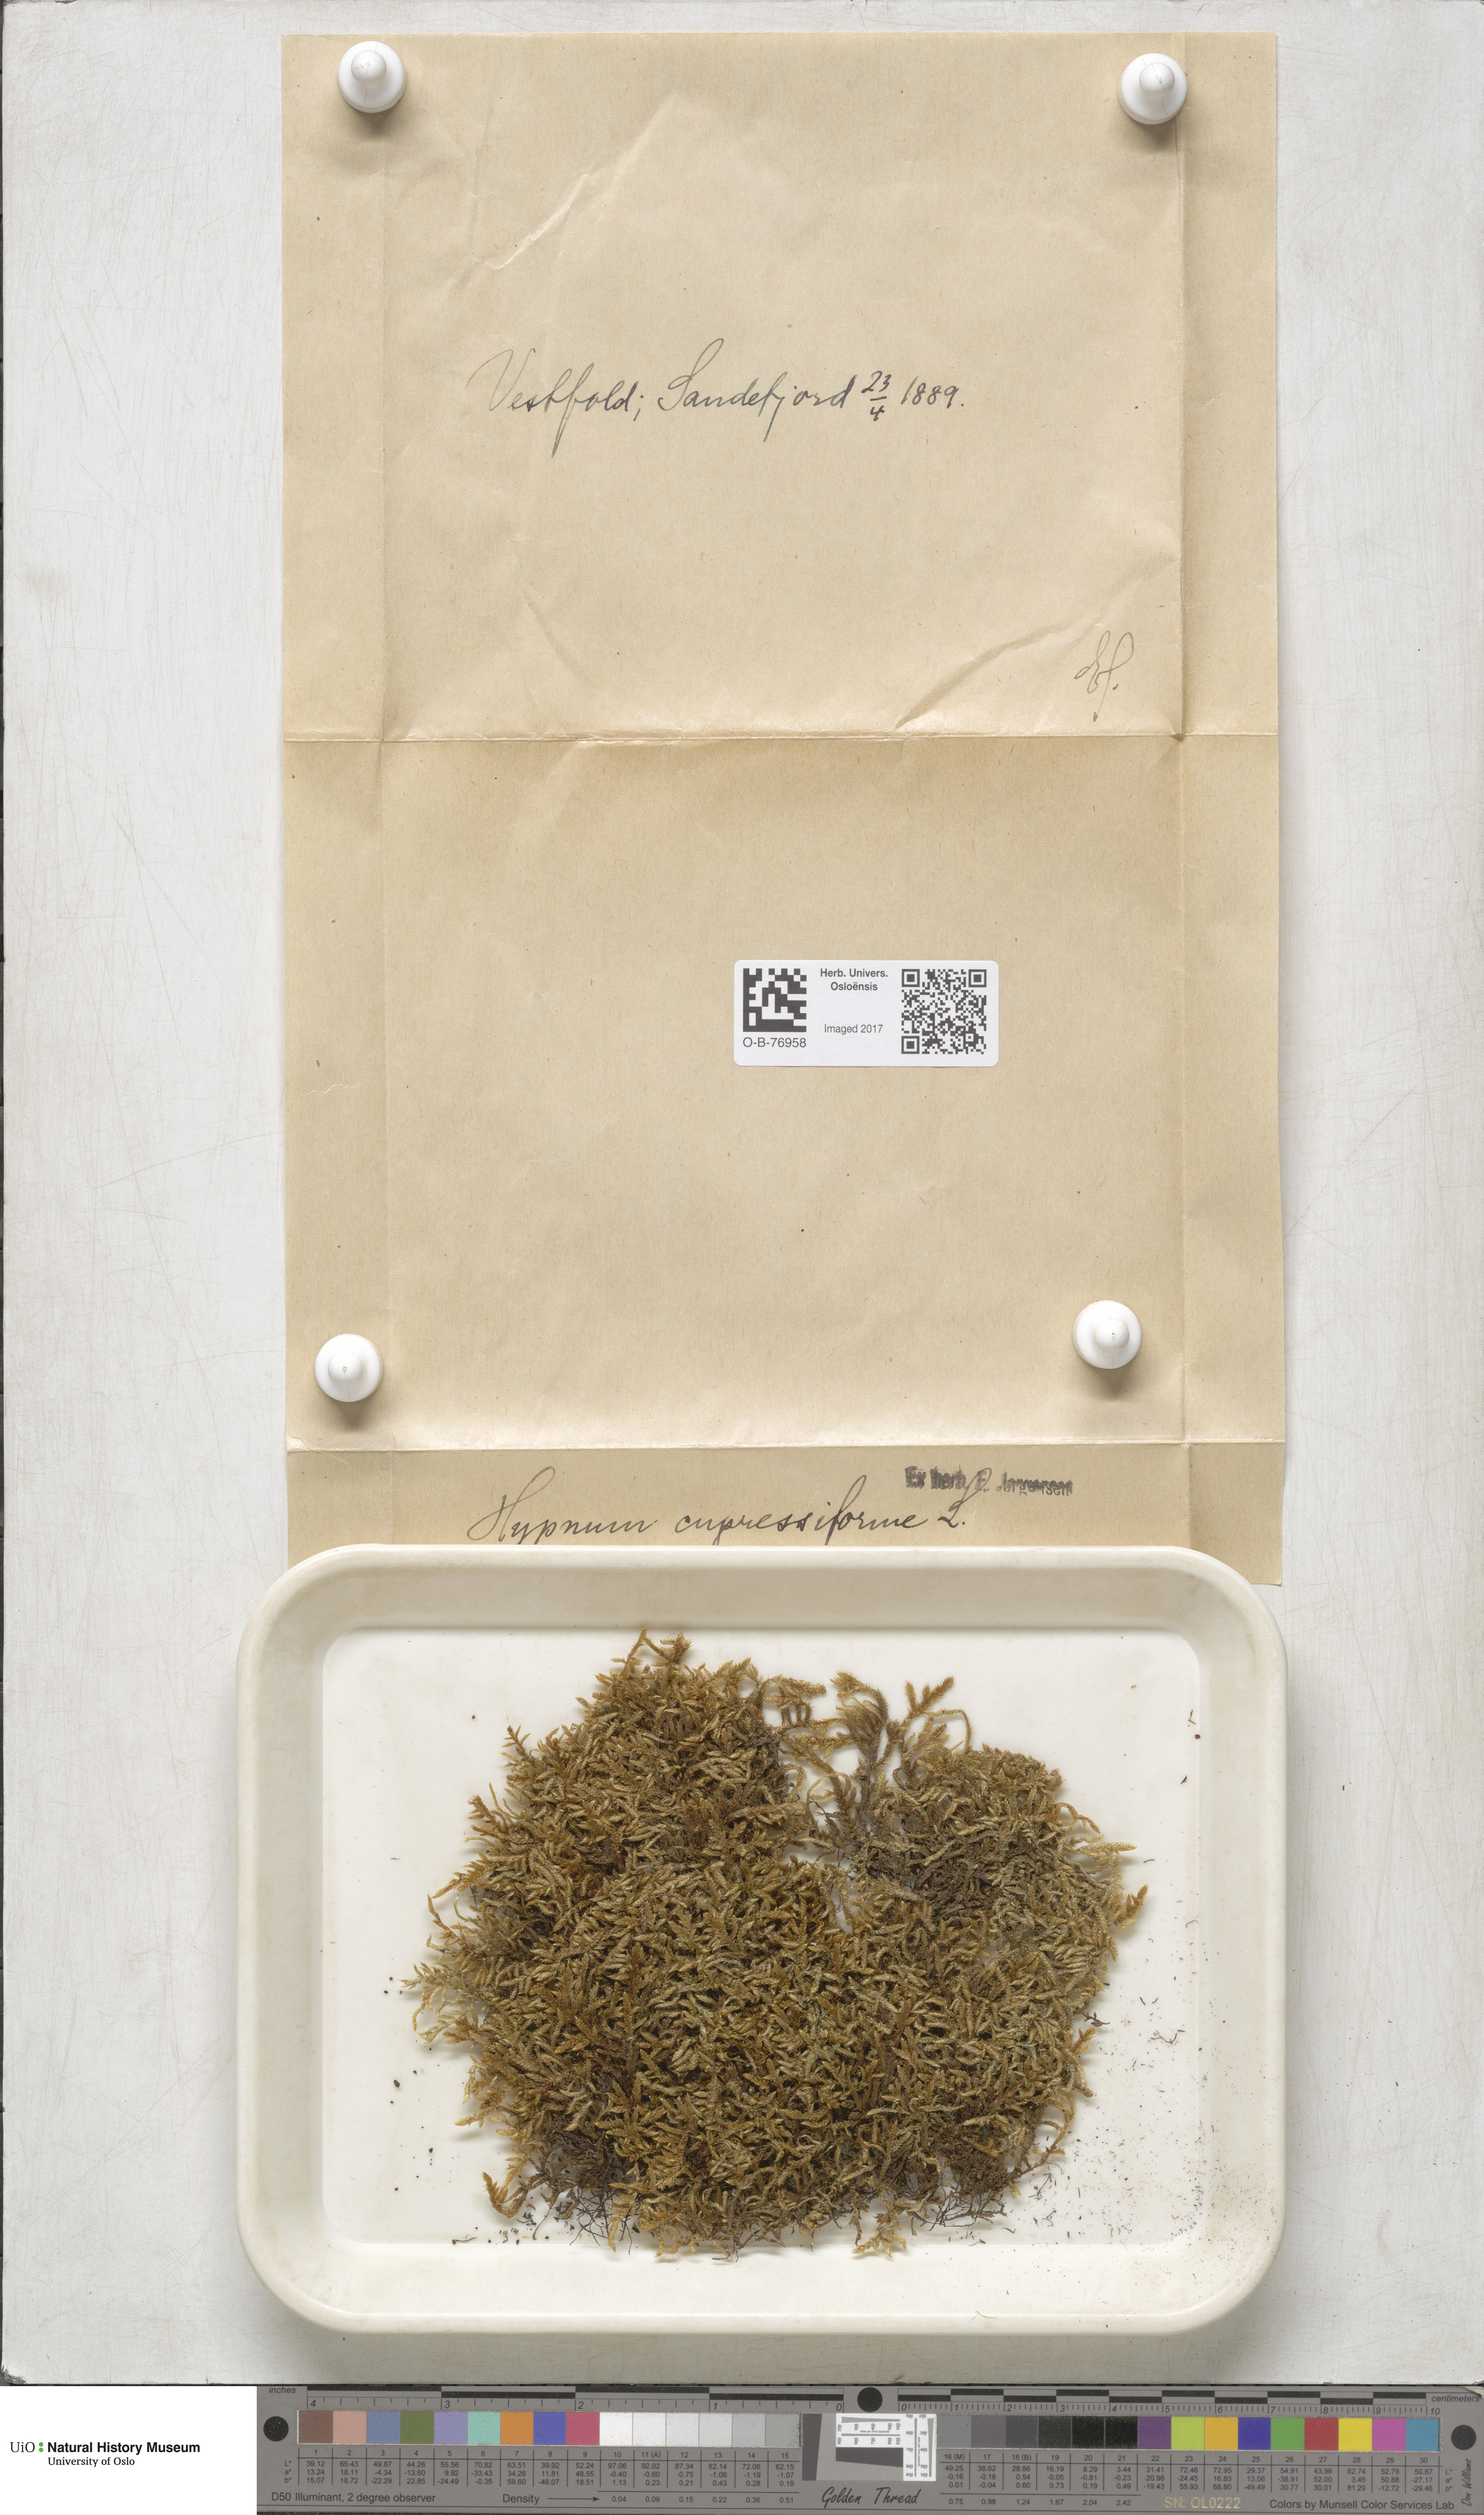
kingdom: Plantae
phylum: Bryophyta
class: Bryopsida
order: Hypnales
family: Hypnaceae
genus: Hypnum
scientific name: Hypnum cupressiforme
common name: Cypress-leaved plait-moss
